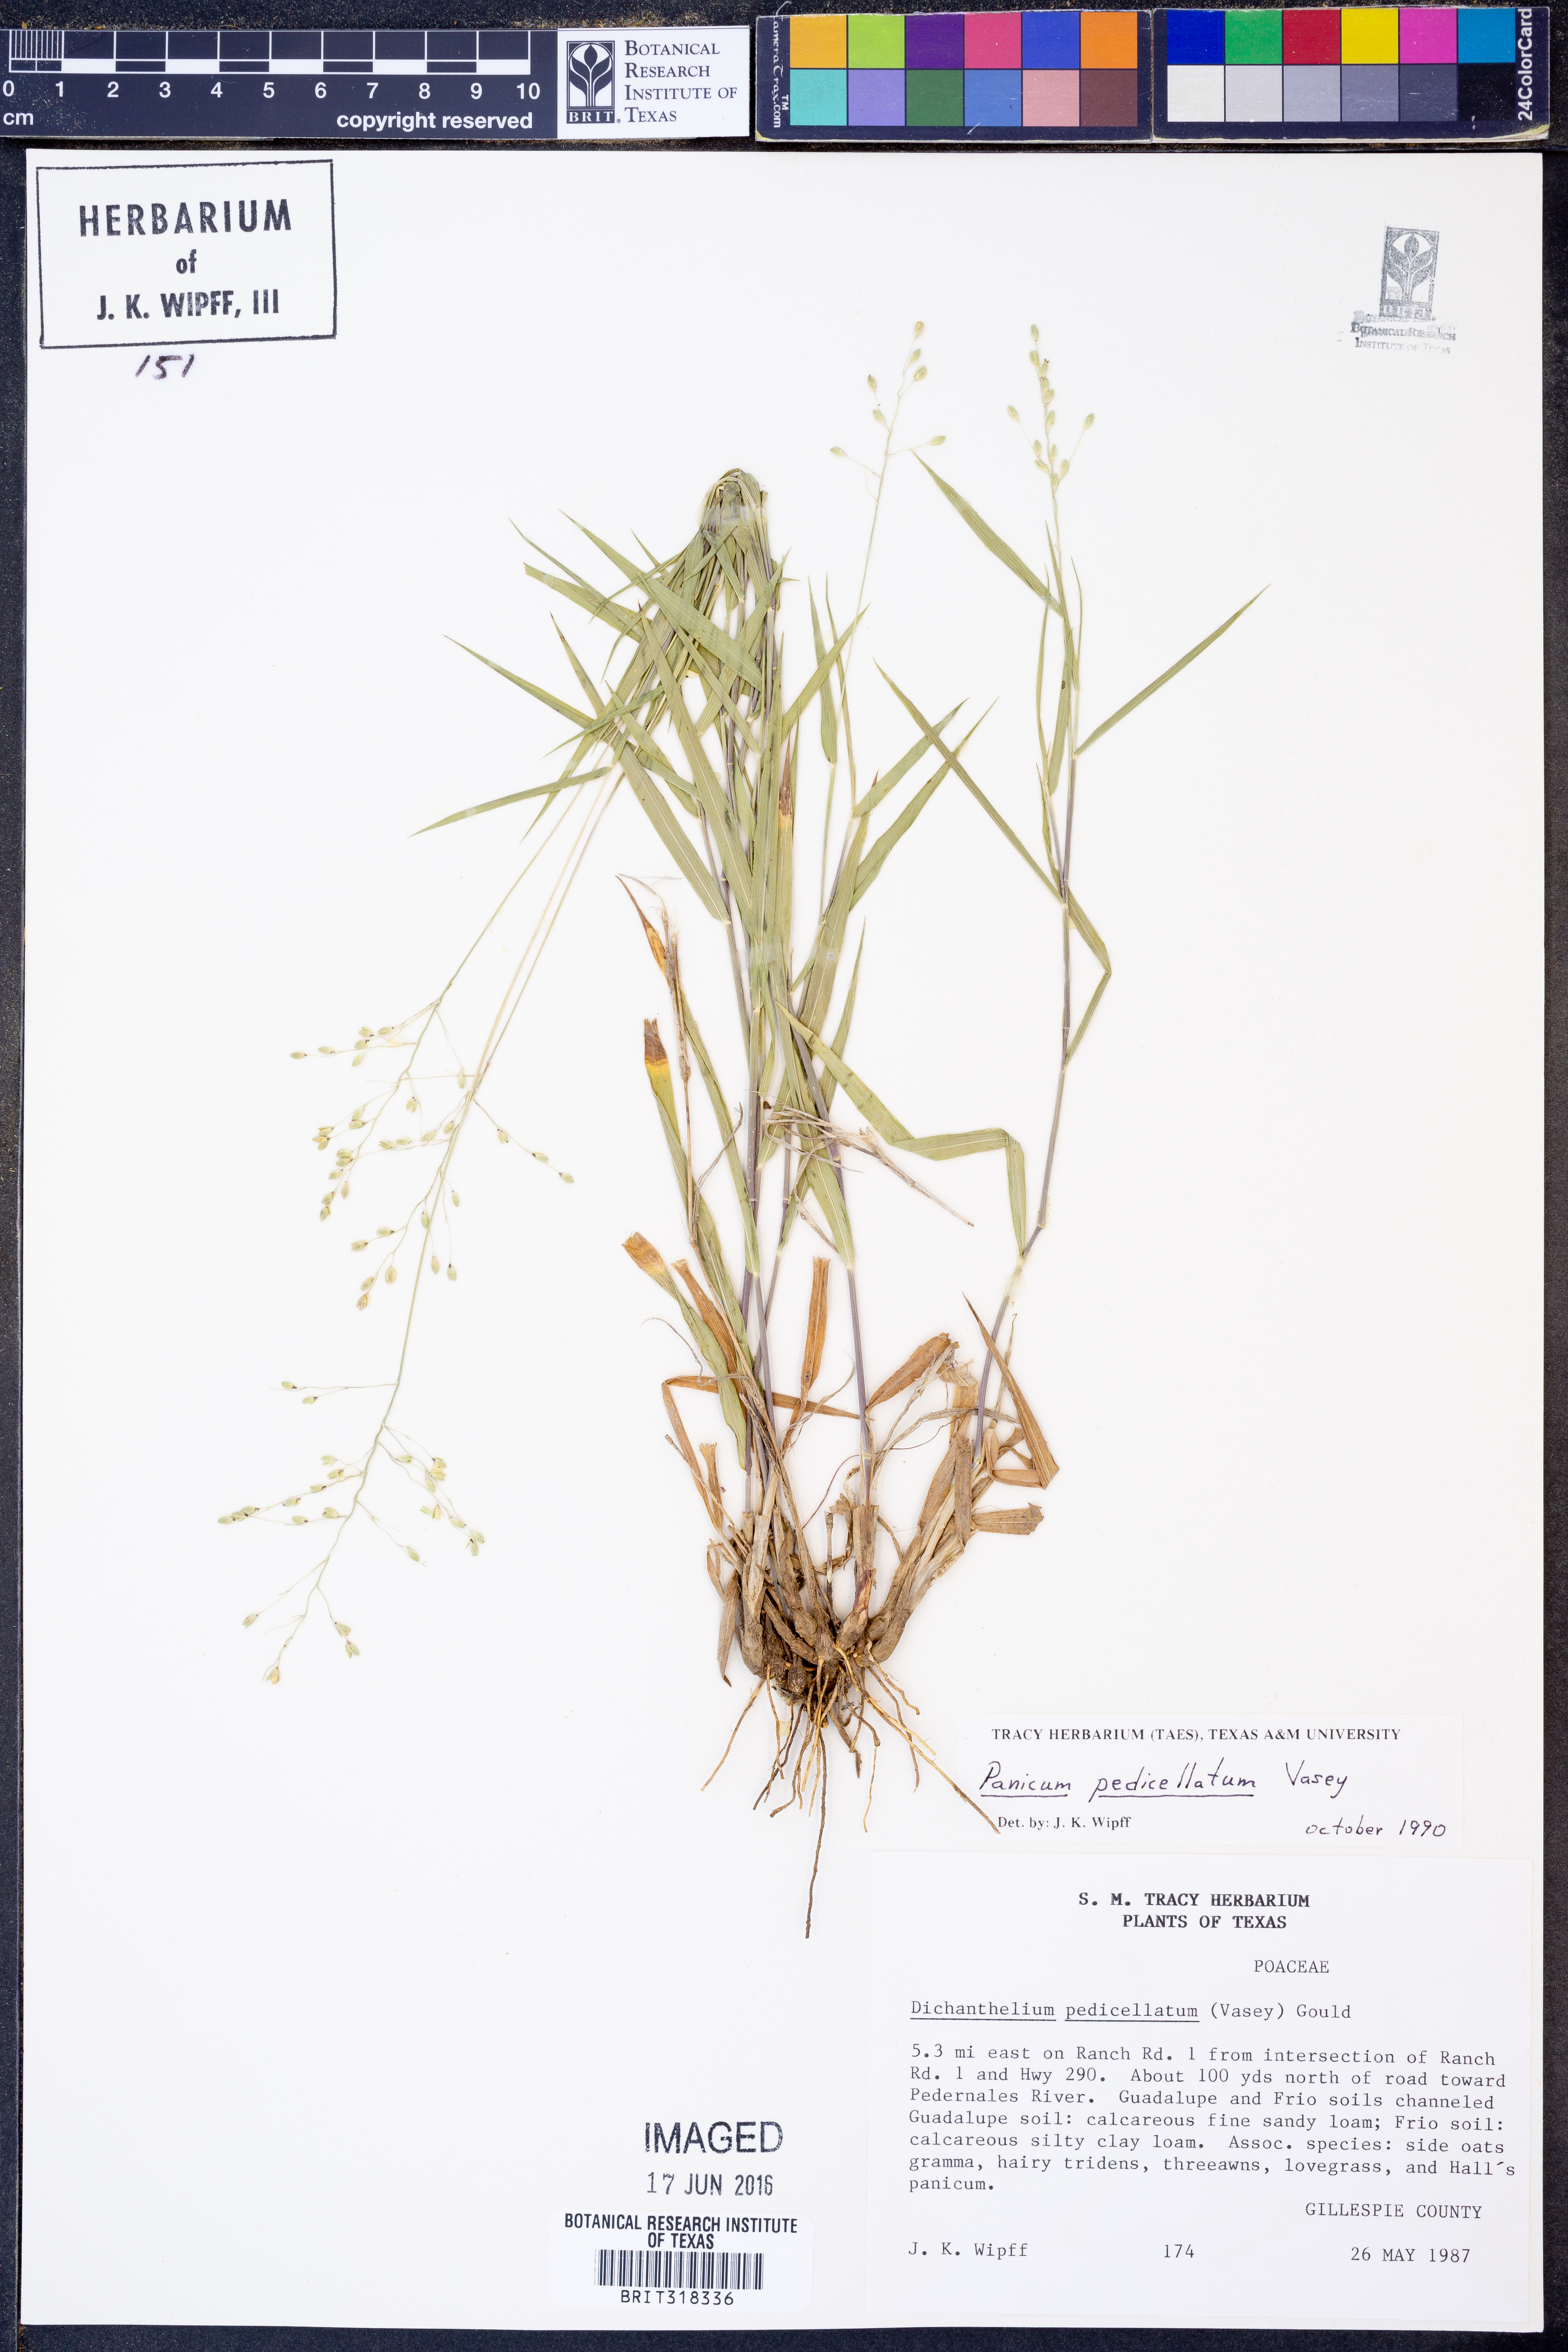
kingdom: Plantae
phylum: Tracheophyta
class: Liliopsida
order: Poales
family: Poaceae
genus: Dichanthelium
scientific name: Dichanthelium transiens
